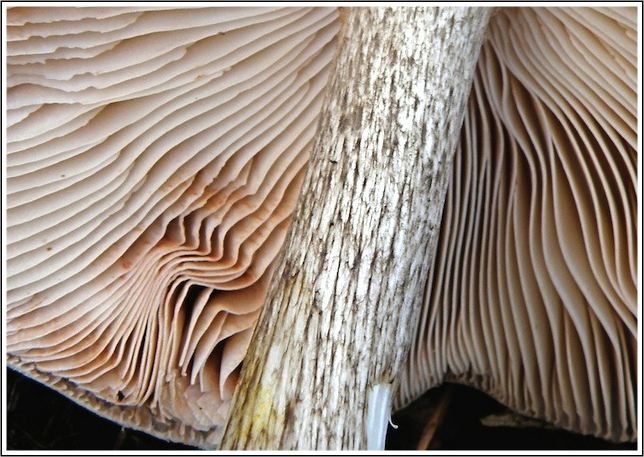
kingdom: Fungi
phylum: Basidiomycota
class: Agaricomycetes
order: Agaricales
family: Pluteaceae
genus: Pluteus
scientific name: Pluteus cervinus
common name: sodfarvet skærmhat
